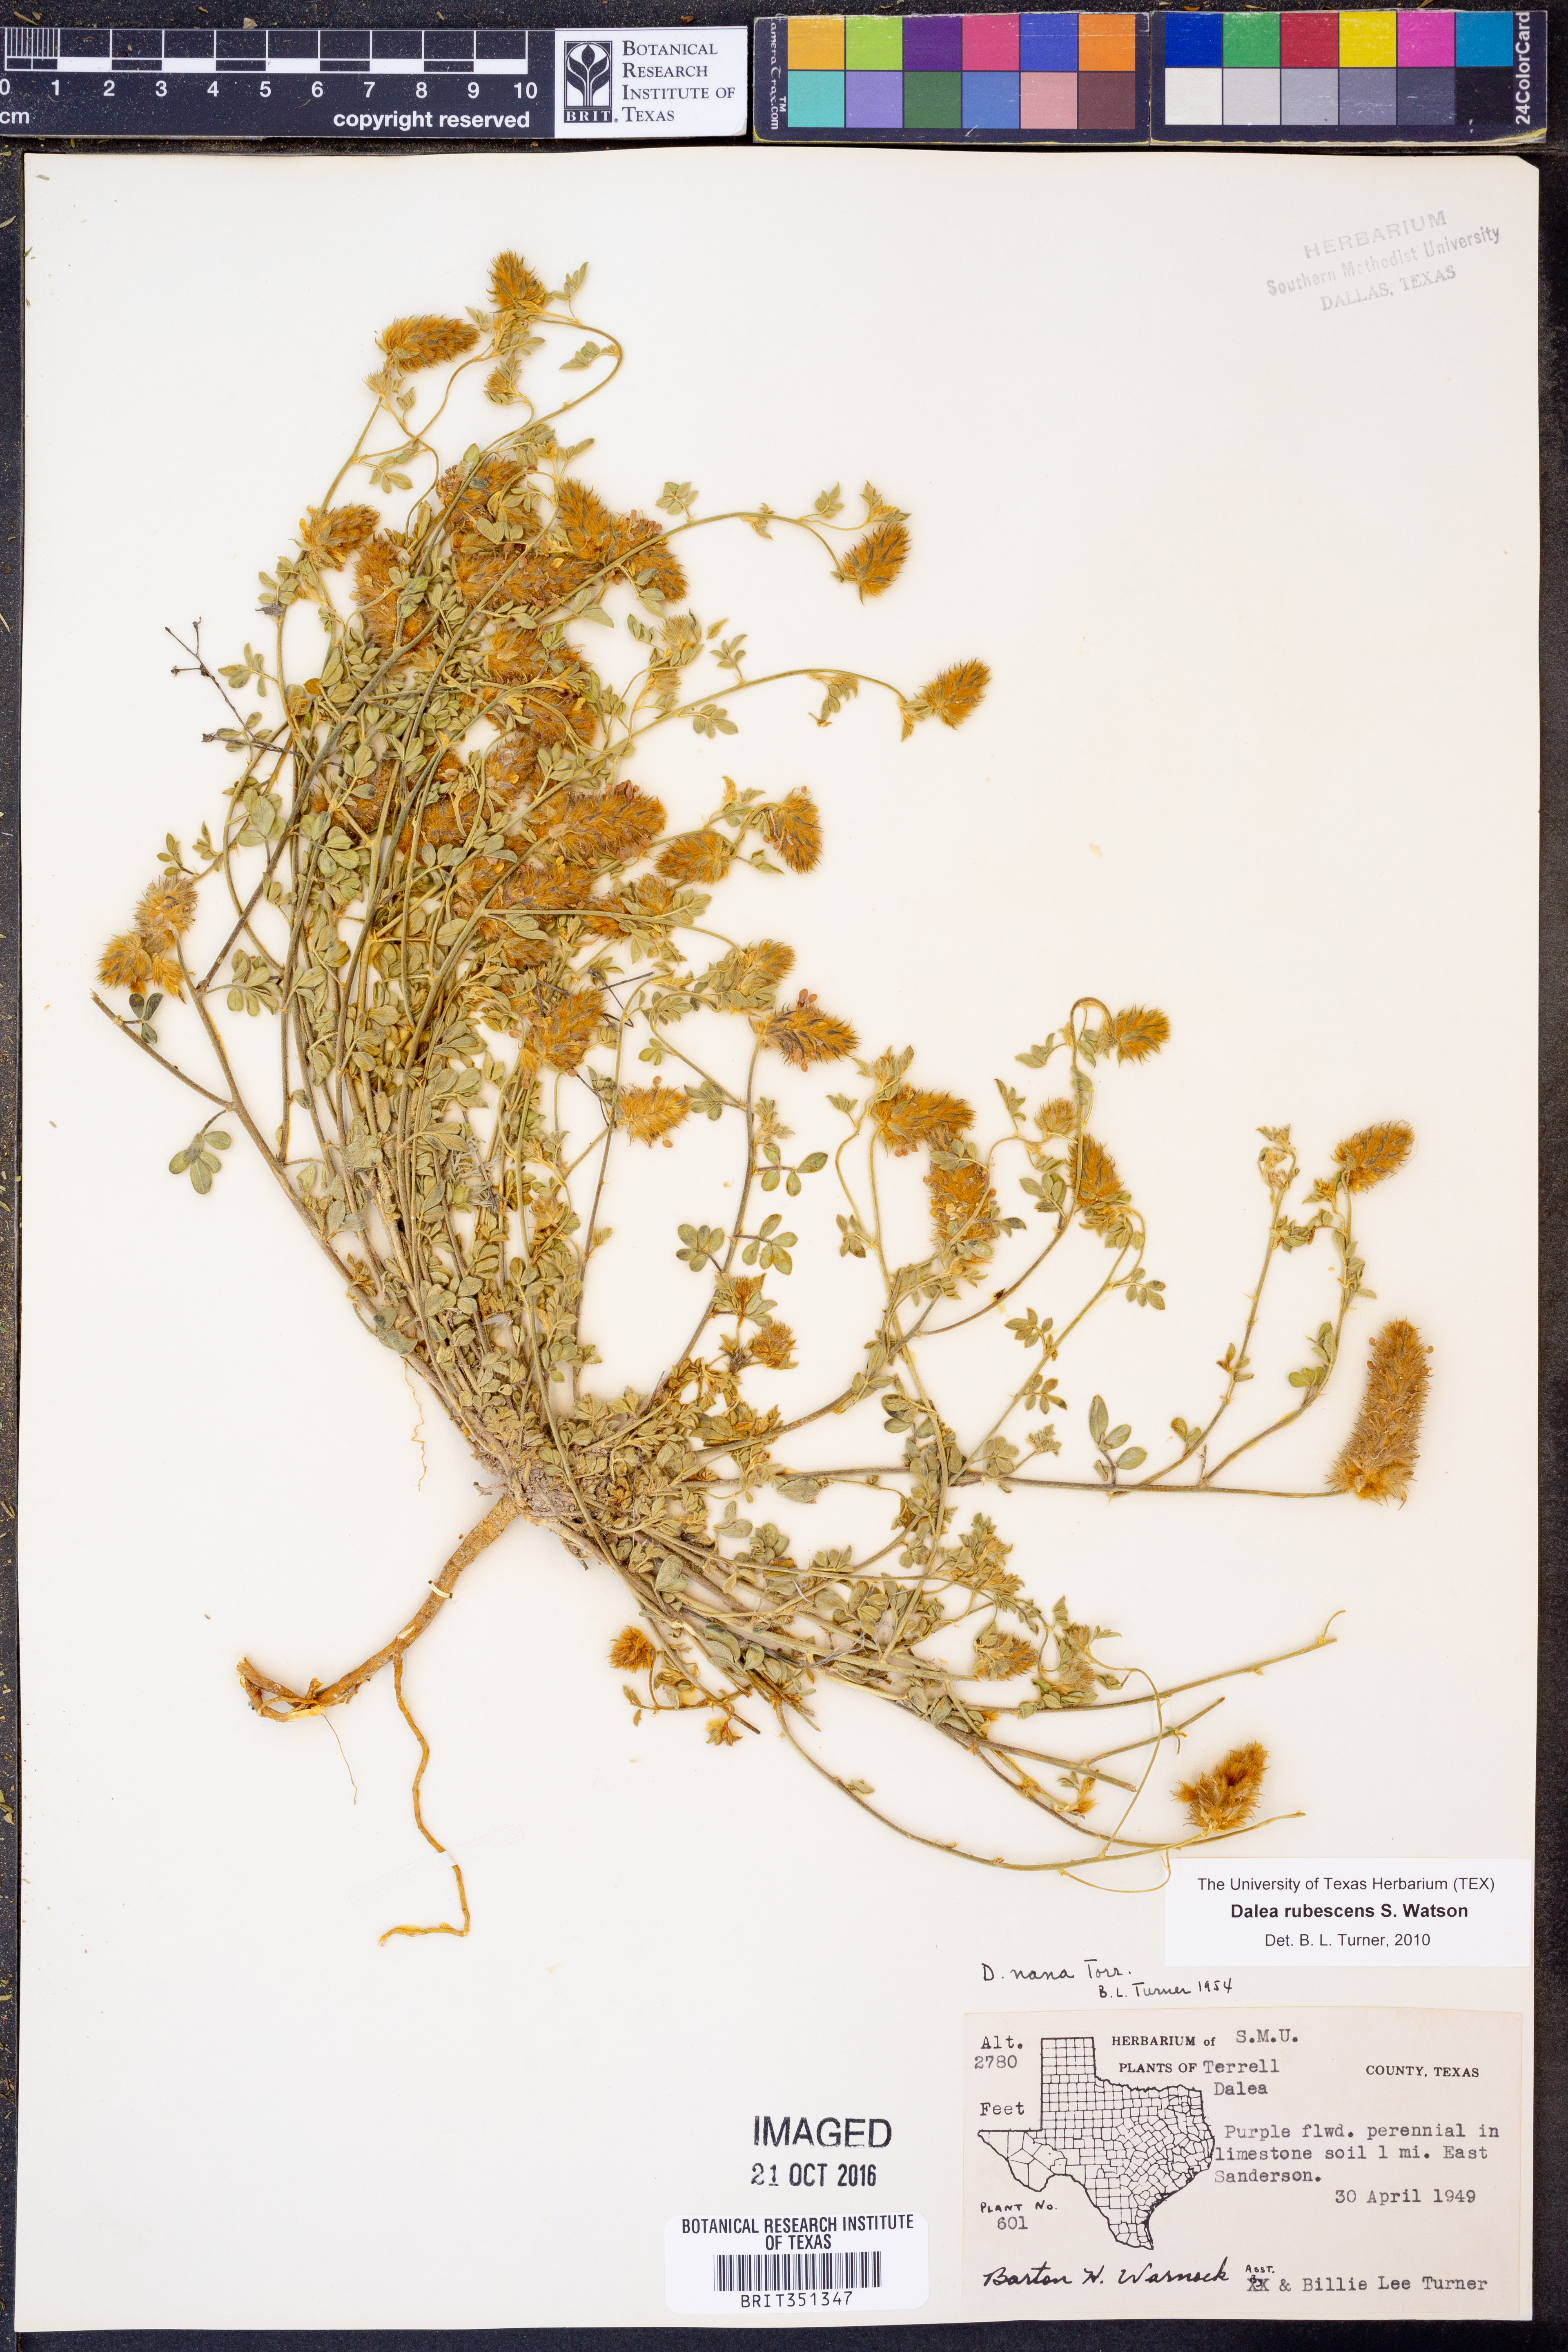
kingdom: Plantae
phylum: Tracheophyta
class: Magnoliopsida
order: Fabales
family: Fabaceae
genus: Dalea
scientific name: Dalea rubescens
